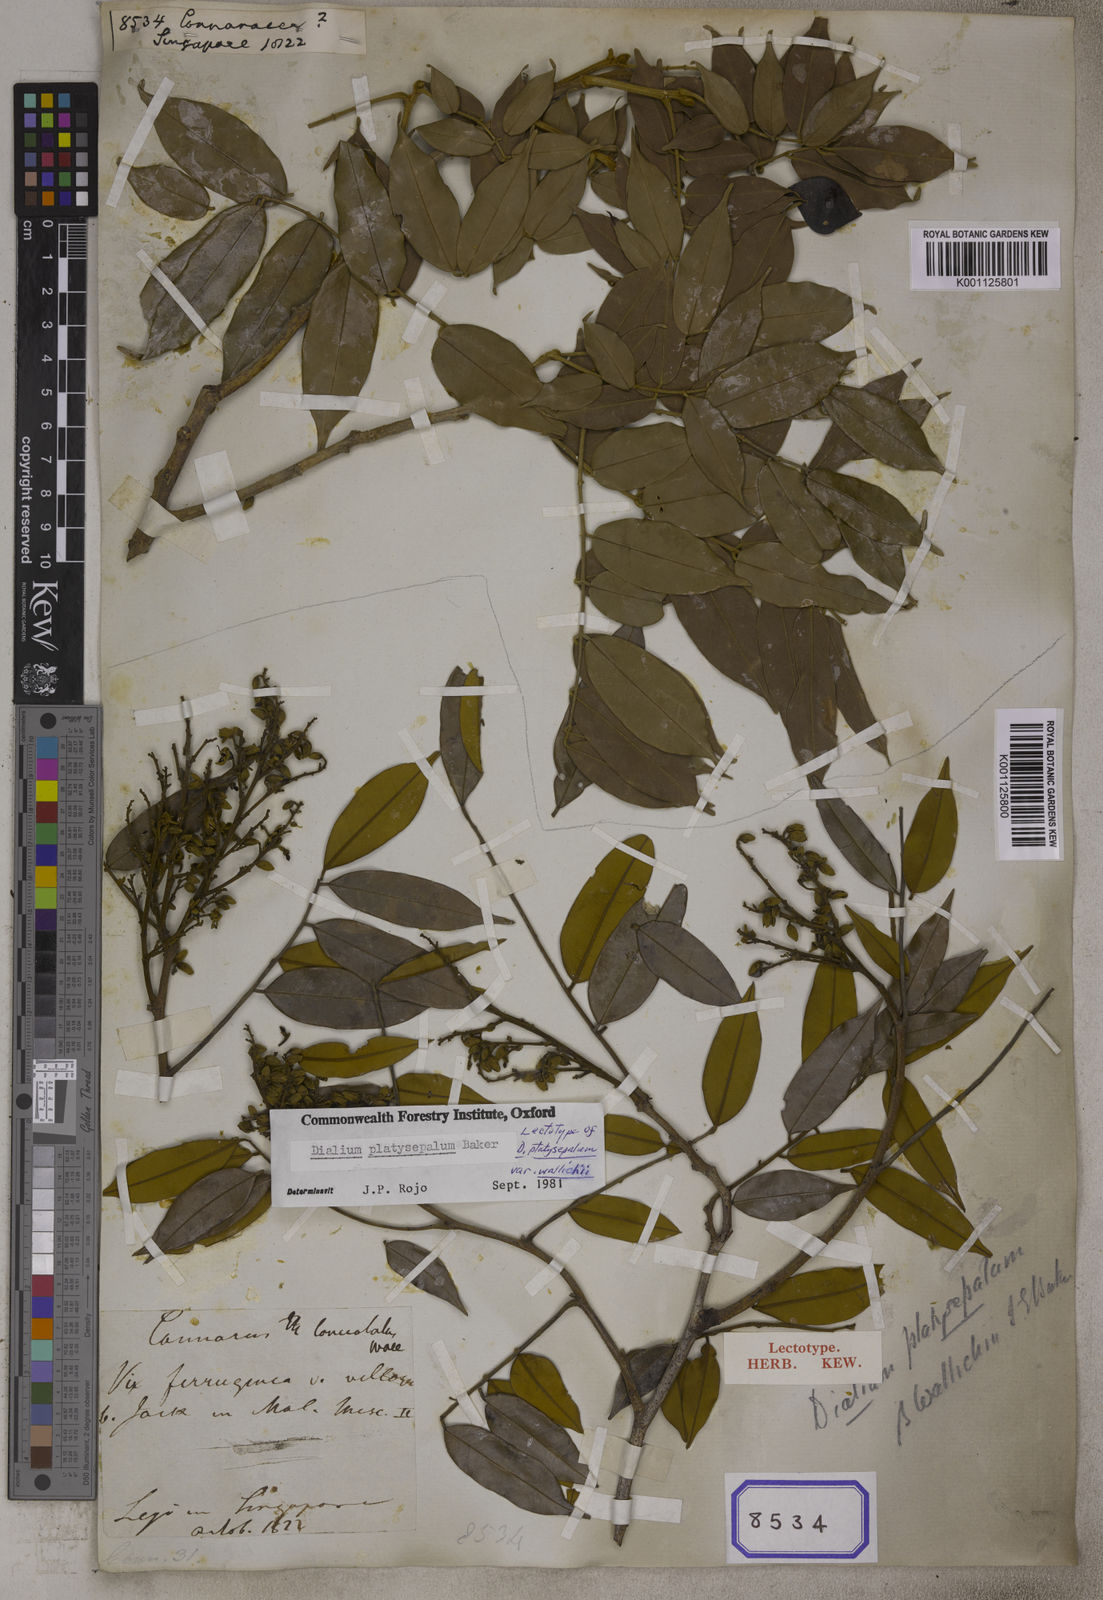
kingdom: Plantae
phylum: Tracheophyta
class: Magnoliopsida
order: Oxalidales
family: Connaraceae
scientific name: Connaraceae
